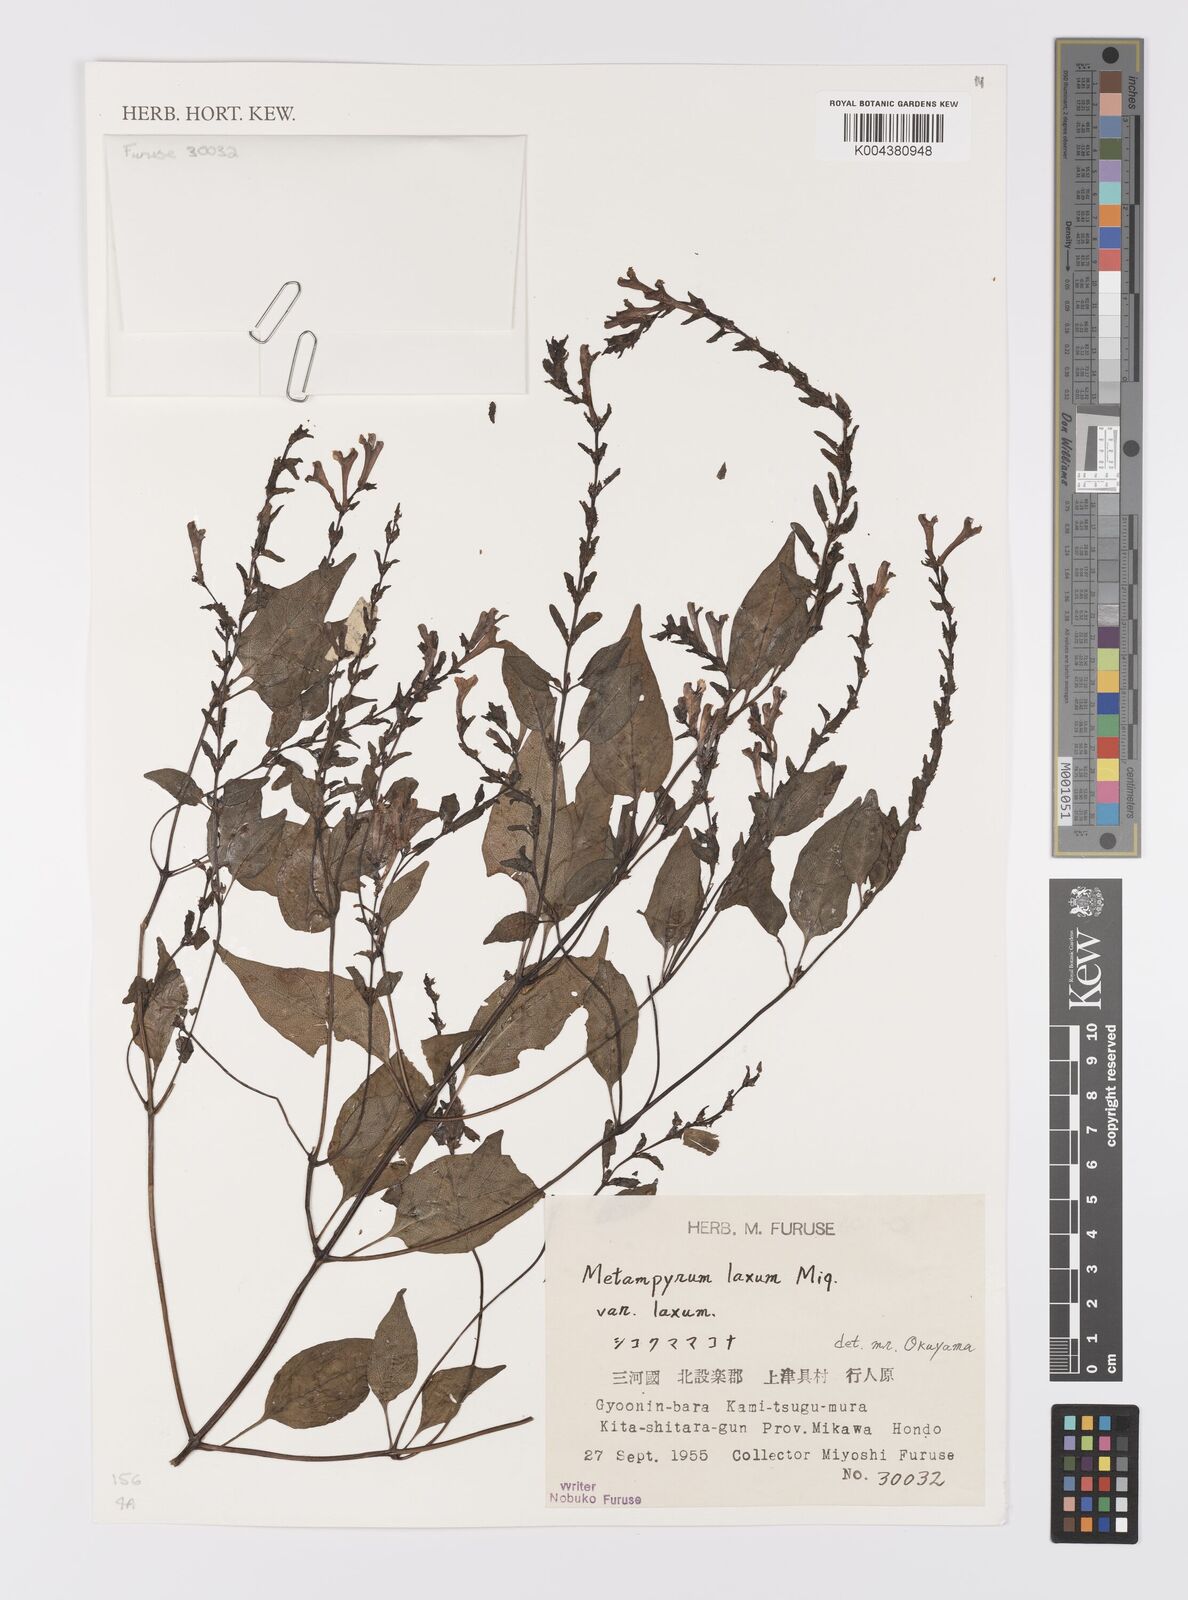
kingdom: Plantae
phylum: Tracheophyta
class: Magnoliopsida
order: Lamiales
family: Orobanchaceae
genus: Melampyrum
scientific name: Melampyrum laxum
